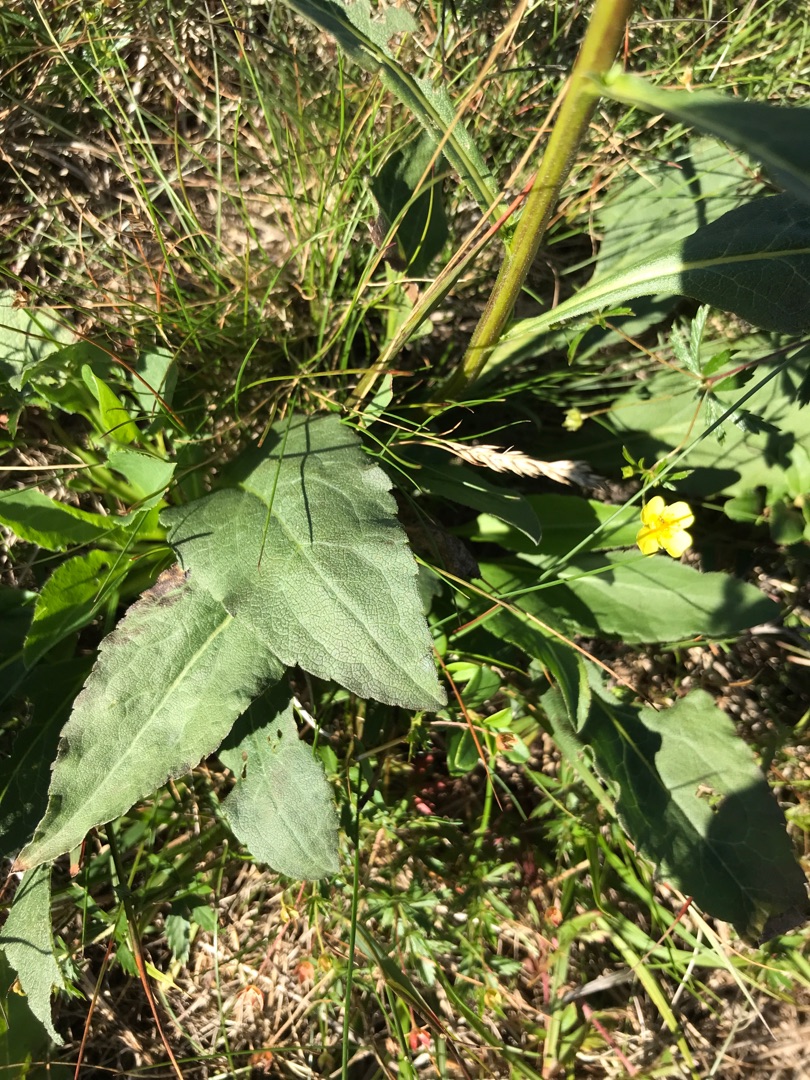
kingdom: Plantae
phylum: Tracheophyta
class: Magnoliopsida
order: Asterales
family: Asteraceae
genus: Solidago
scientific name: Solidago virgaurea
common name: Almindelig gyldenris
